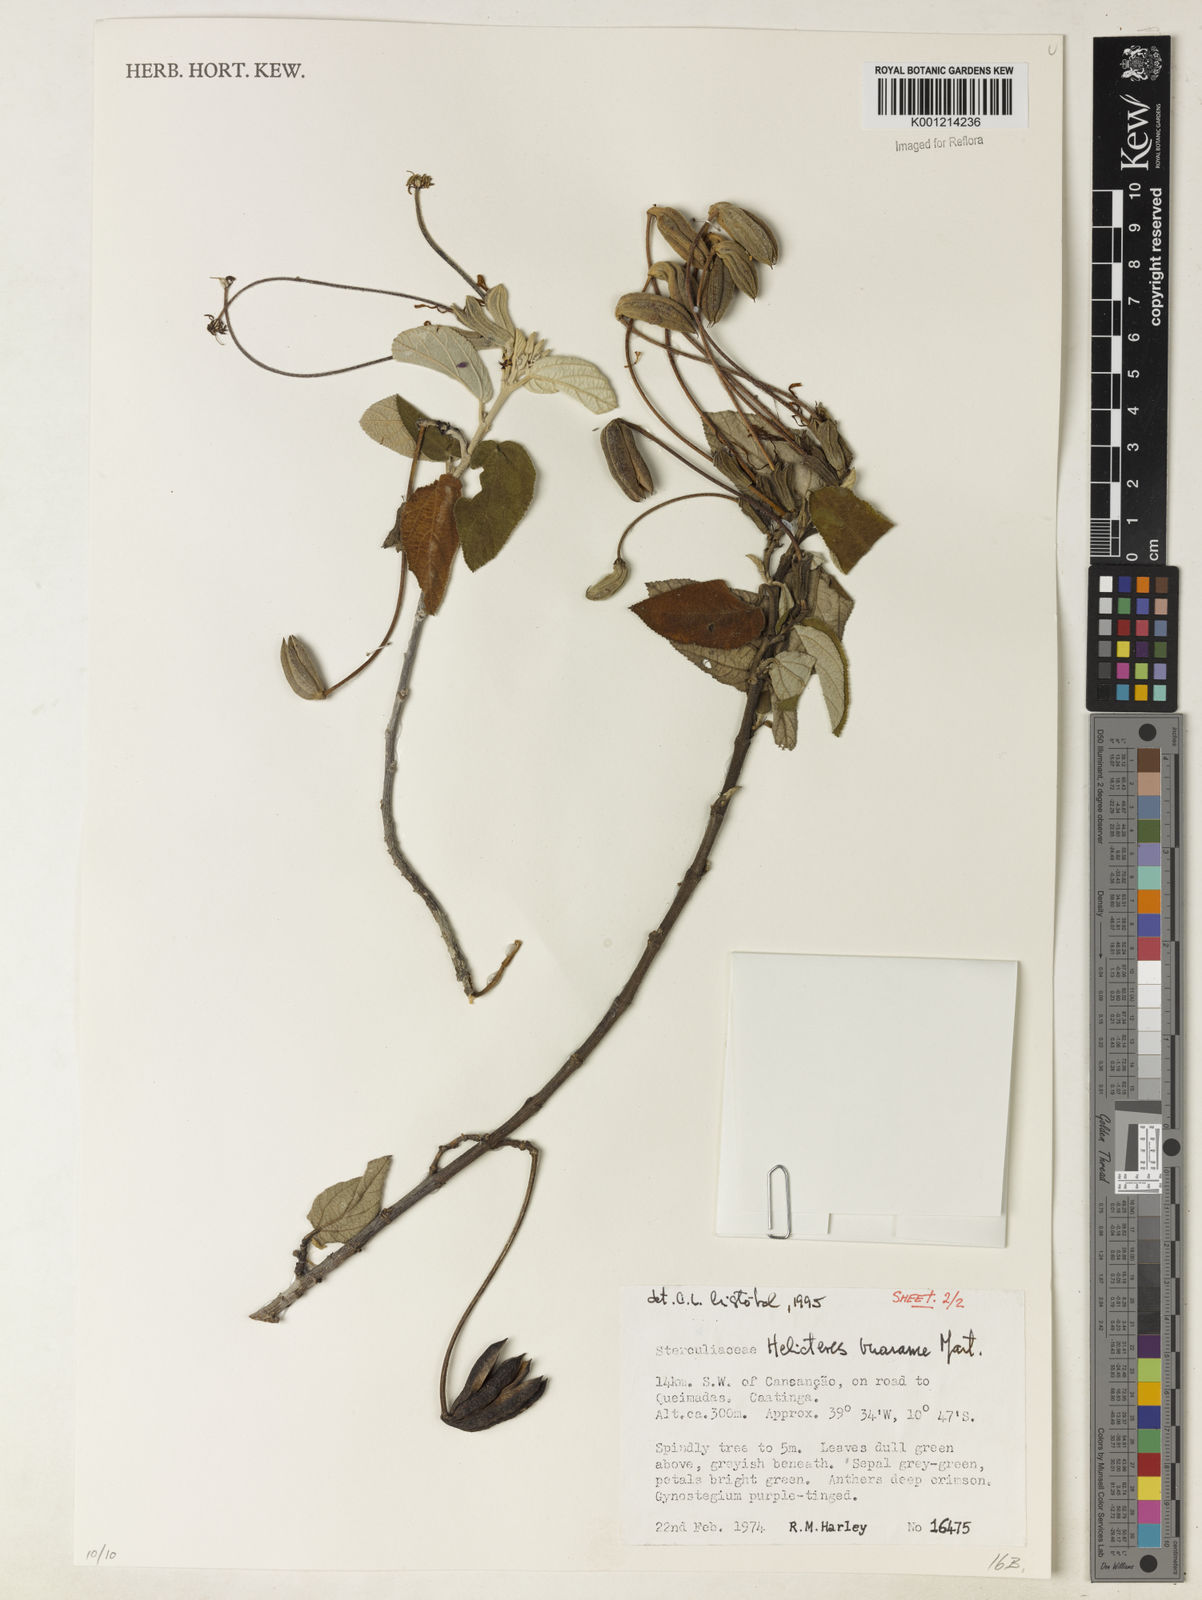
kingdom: Plantae
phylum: Tracheophyta
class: Magnoliopsida
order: Malvales
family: Malvaceae
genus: Helicteres
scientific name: Helicteres vuarame
